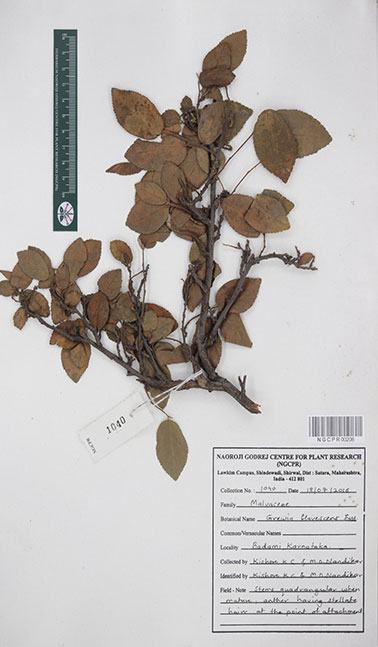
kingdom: Plantae
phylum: Tracheophyta
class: Magnoliopsida
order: Malvales
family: Malvaceae
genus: Grewia
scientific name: Grewia flavescens
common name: Sandpaper raisin
